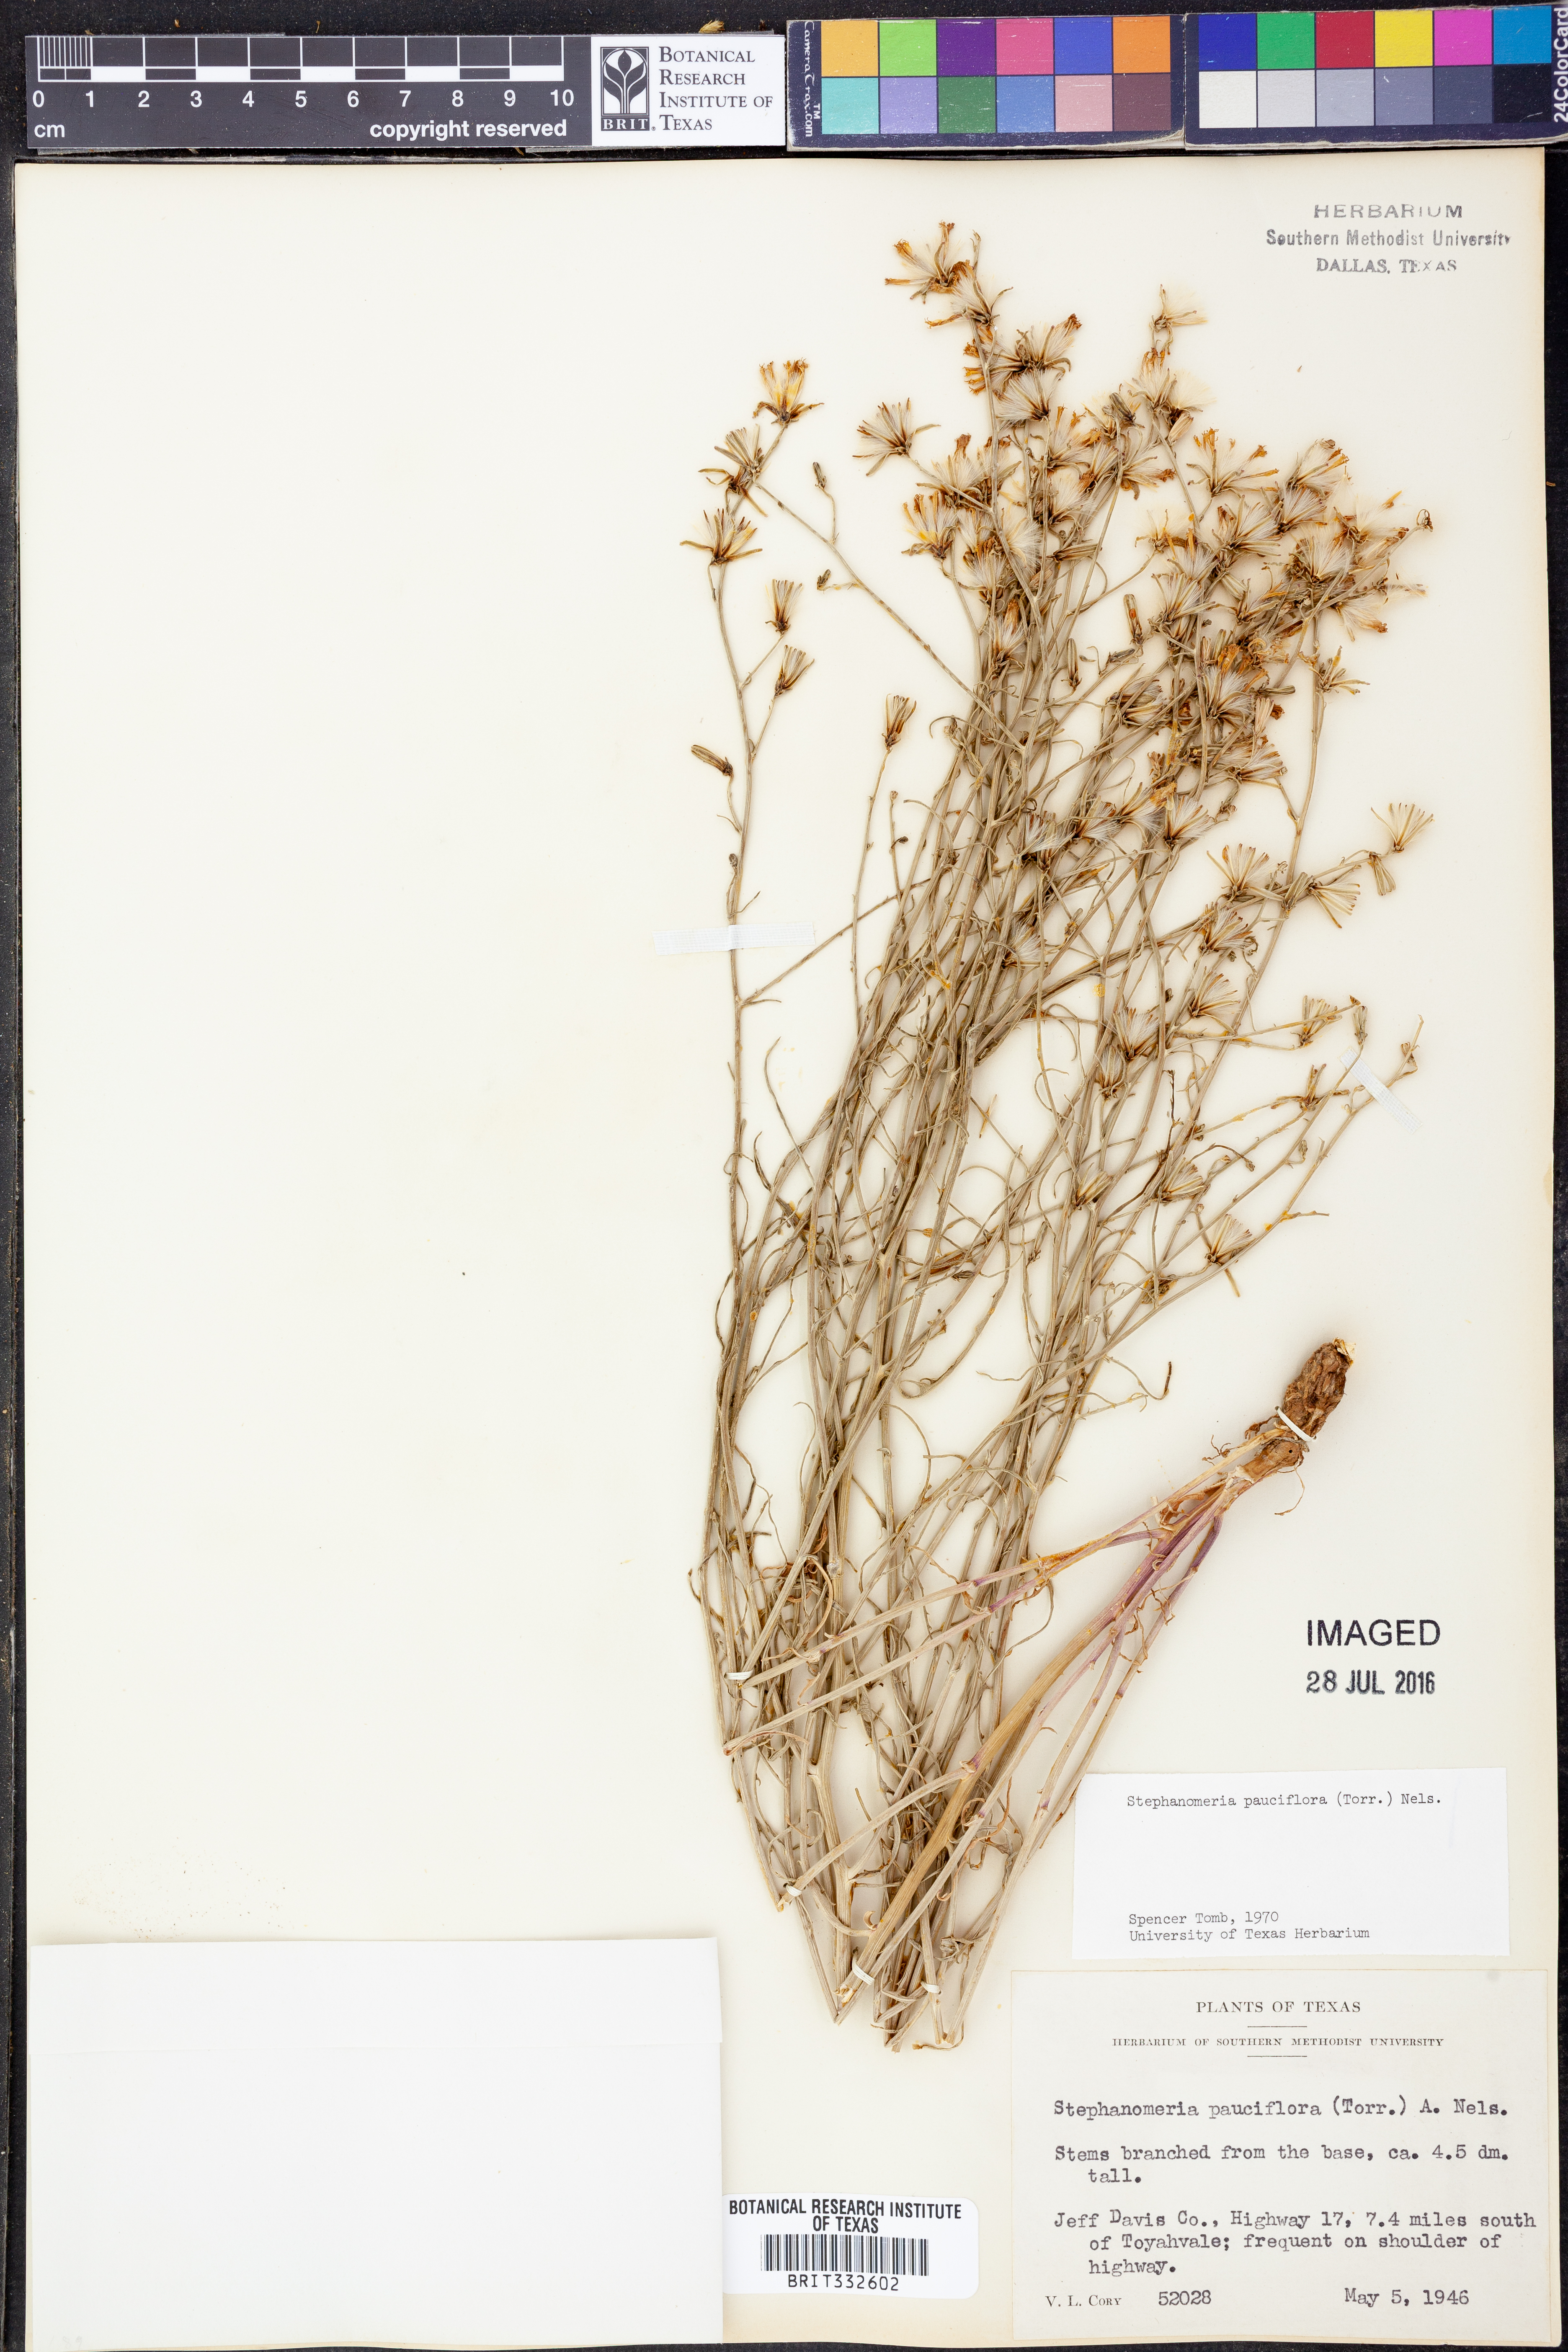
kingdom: Plantae
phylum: Tracheophyta
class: Magnoliopsida
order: Asterales
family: Asteraceae
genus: Stephanomeria
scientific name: Stephanomeria pauciflora
